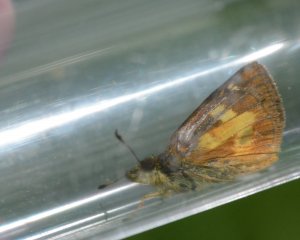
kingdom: Animalia
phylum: Arthropoda
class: Insecta
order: Lepidoptera
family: Hesperiidae
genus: Poanes
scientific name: Poanes massasoit
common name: Mulberry Wing
